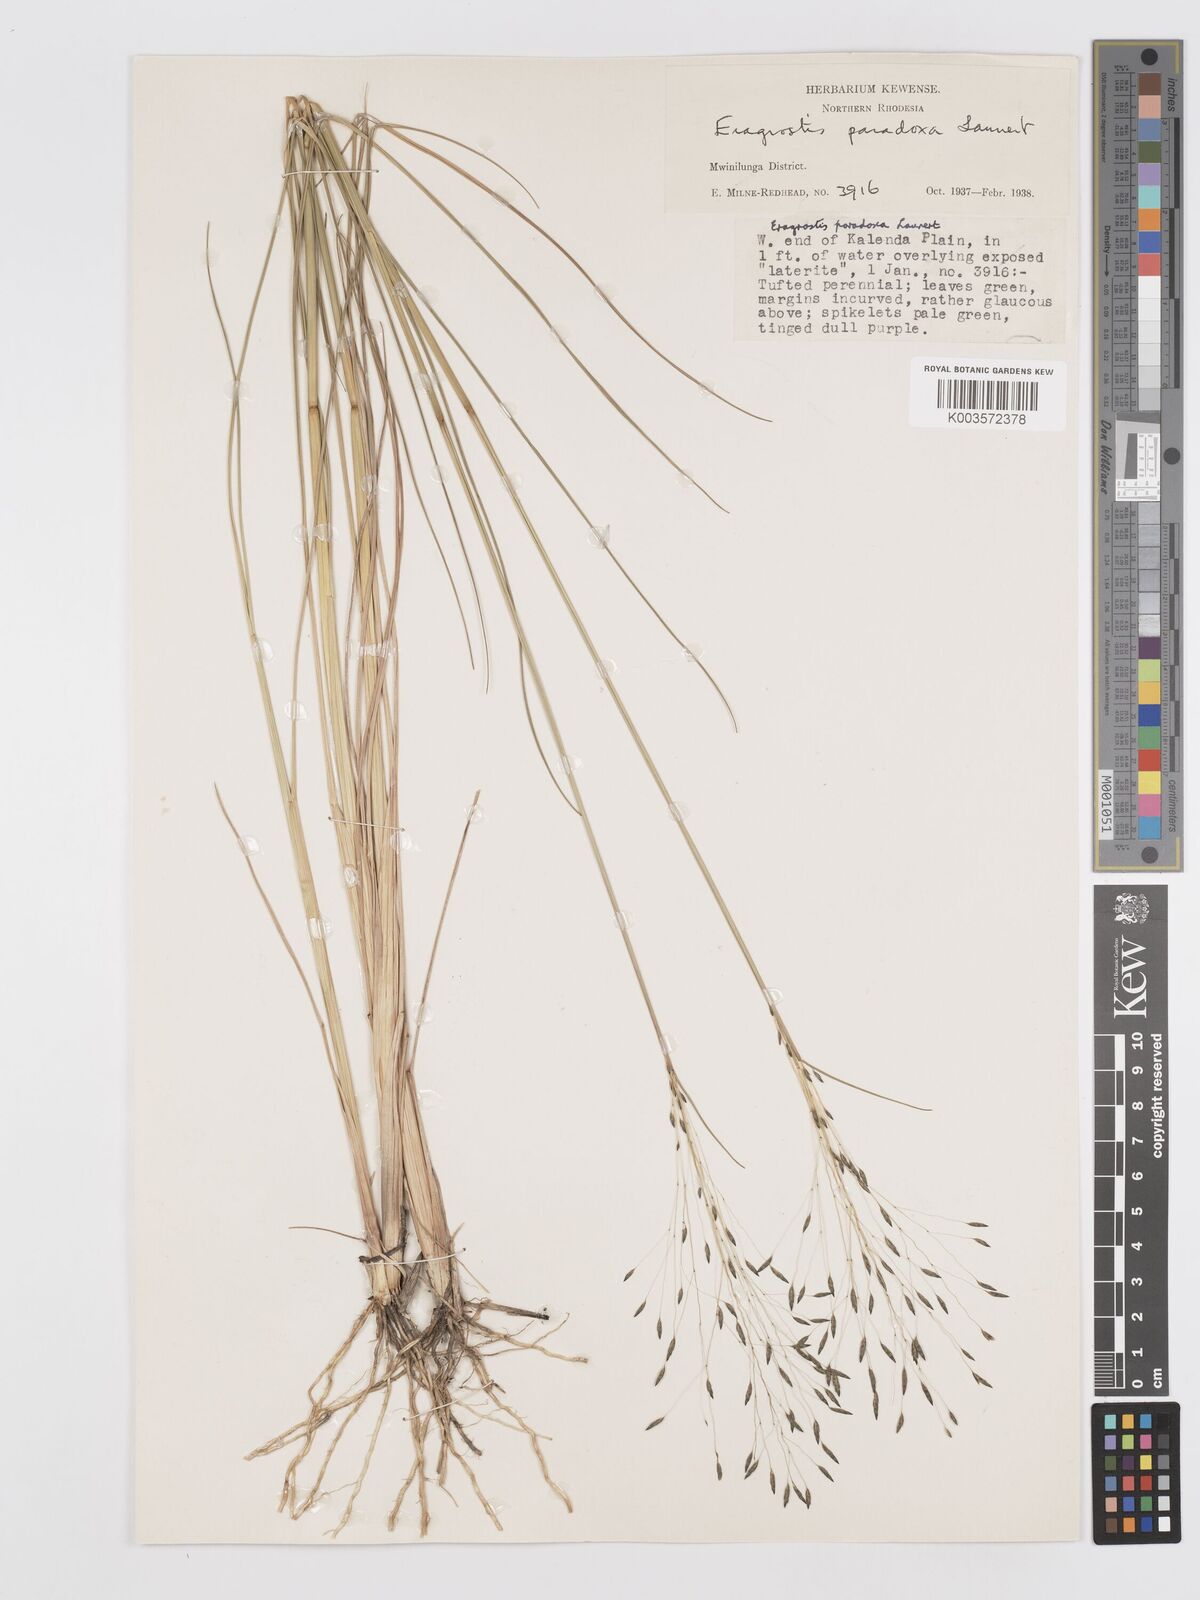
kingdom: Plantae
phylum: Tracheophyta
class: Liliopsida
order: Poales
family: Poaceae
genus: Eragrostis
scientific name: Eragrostis milnei
